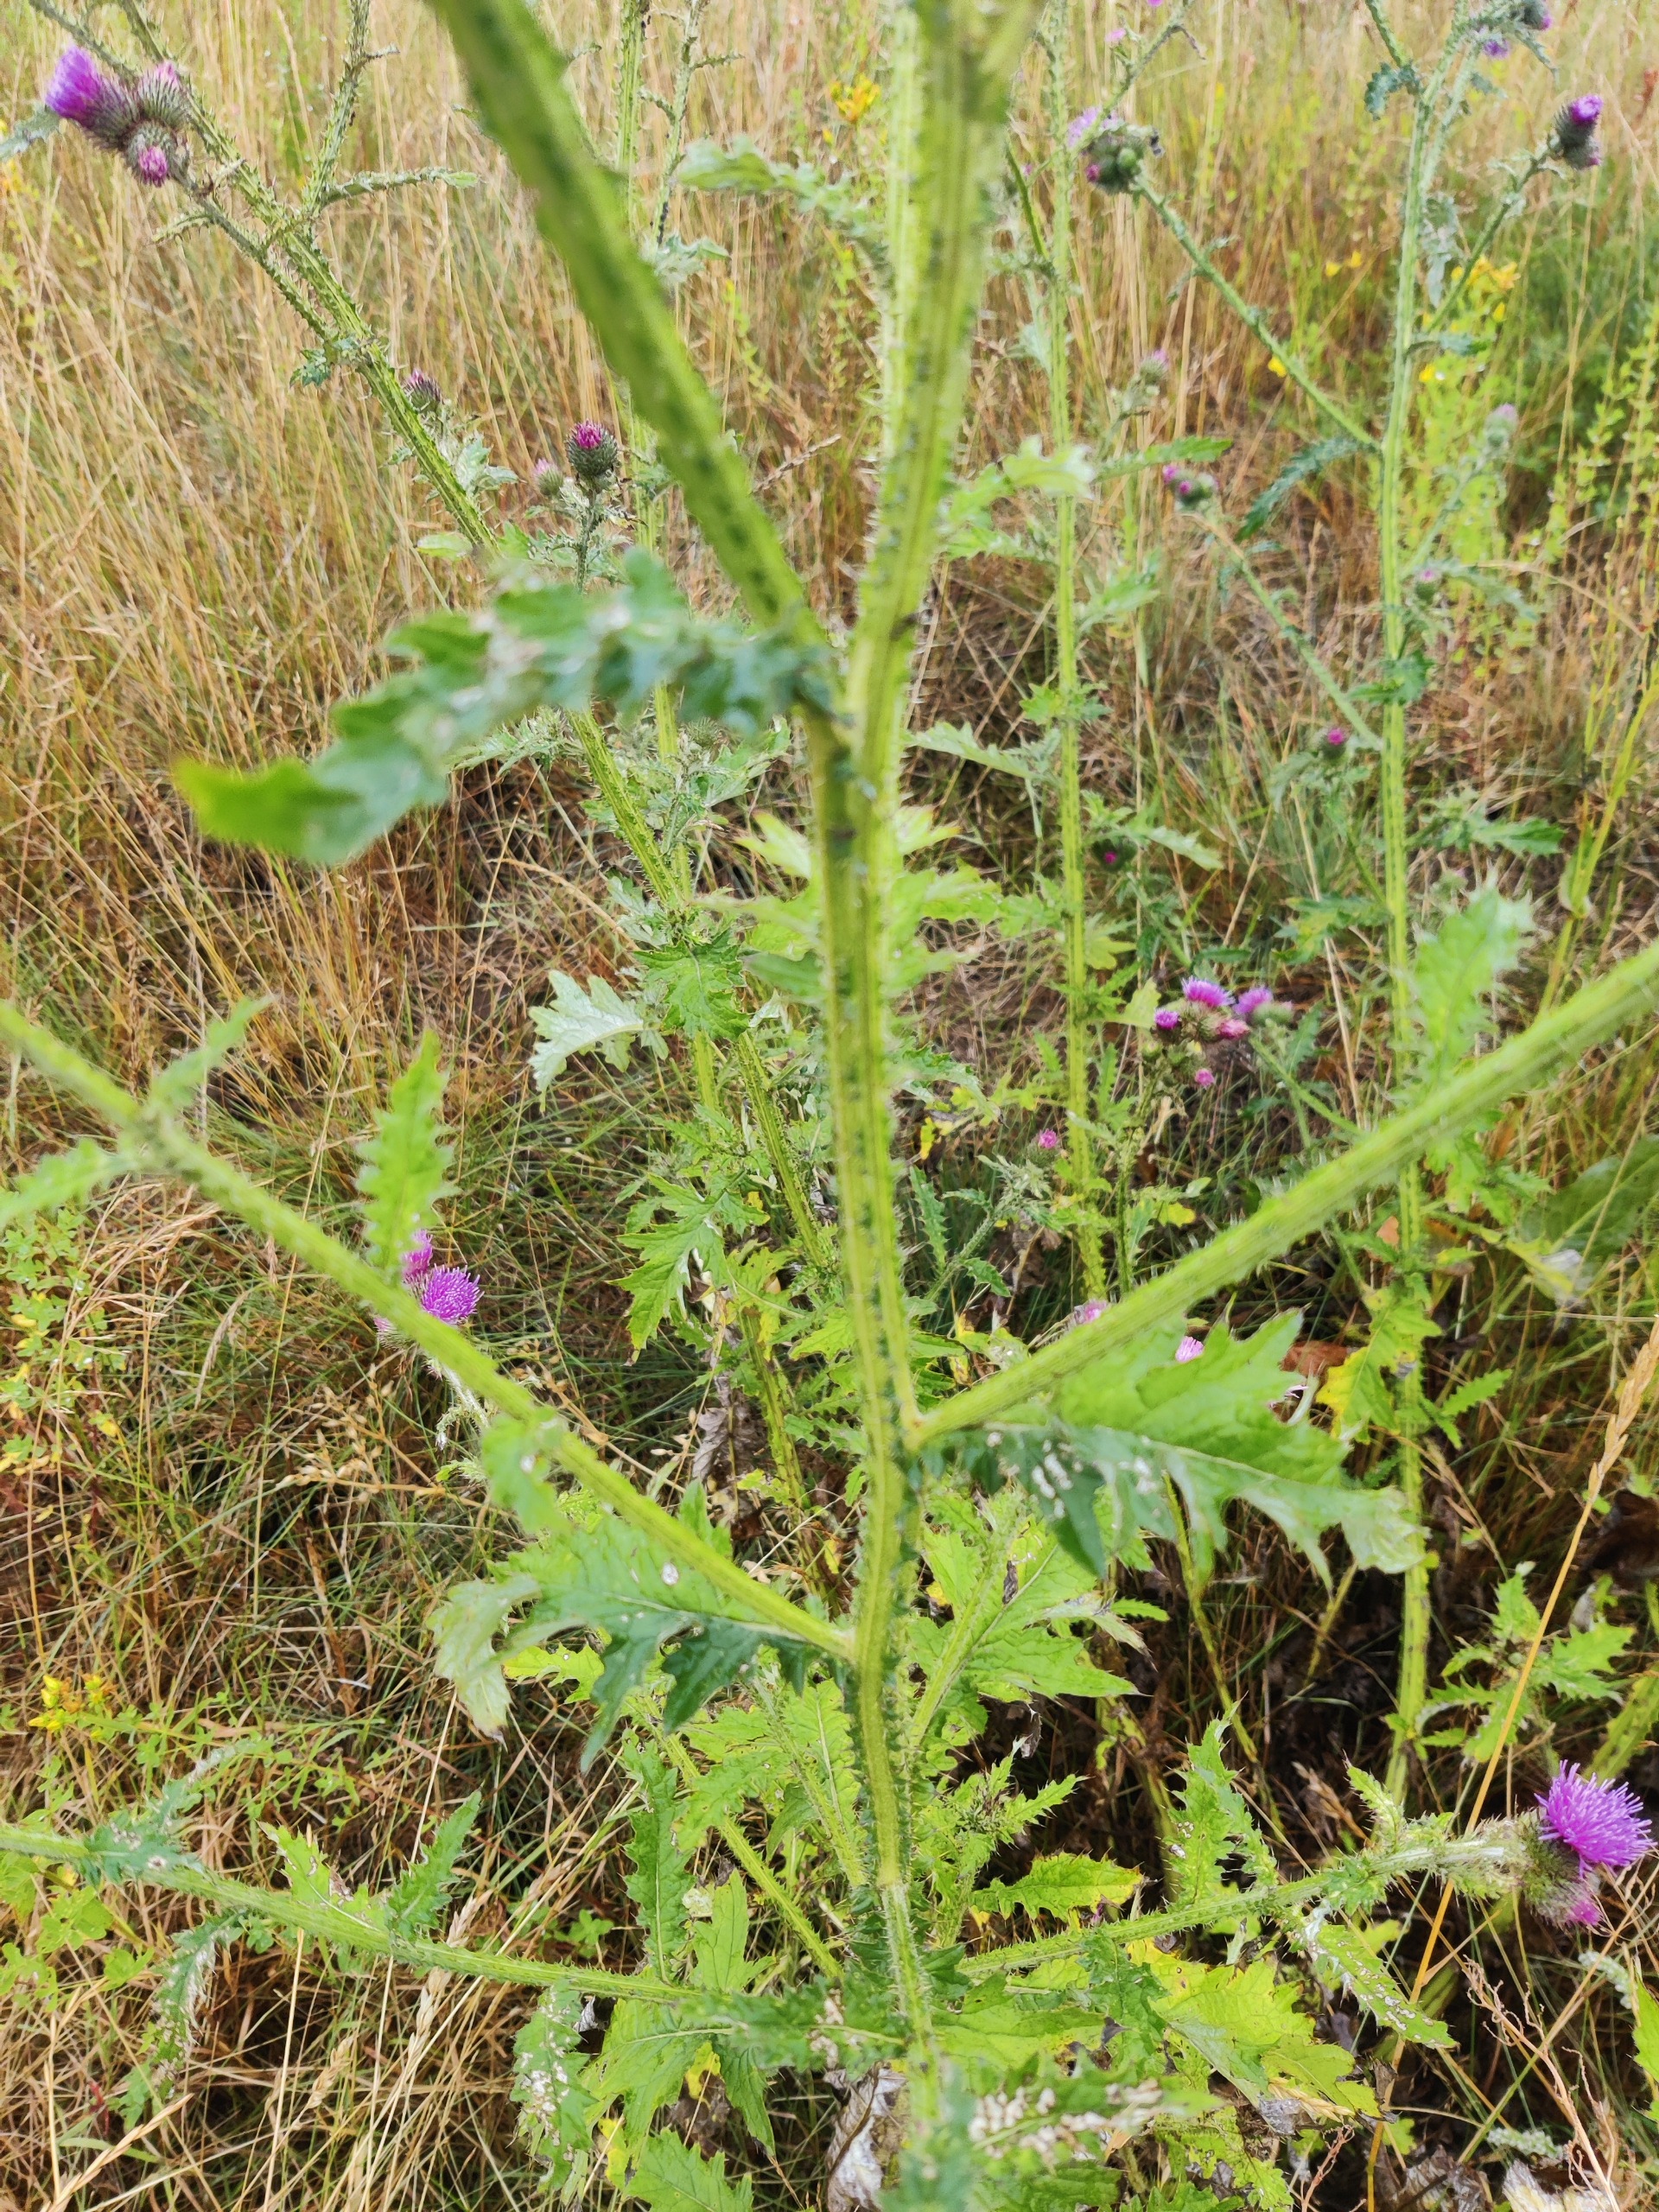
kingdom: Plantae
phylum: Tracheophyta
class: Magnoliopsida
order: Asterales
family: Asteraceae
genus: Carduus
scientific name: Carduus crispus
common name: Kruset tidsel
